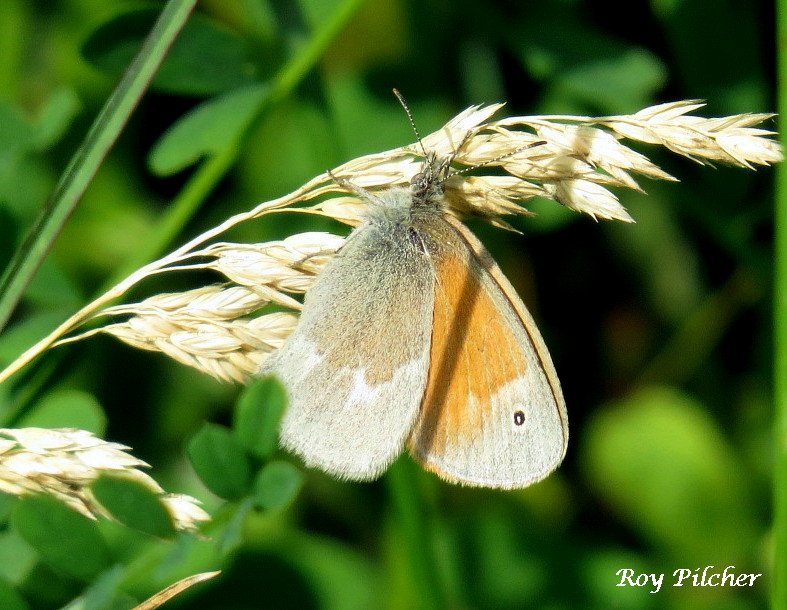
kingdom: Animalia
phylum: Arthropoda
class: Insecta
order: Lepidoptera
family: Nymphalidae
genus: Coenonympha
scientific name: Coenonympha tullia
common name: Large Heath
